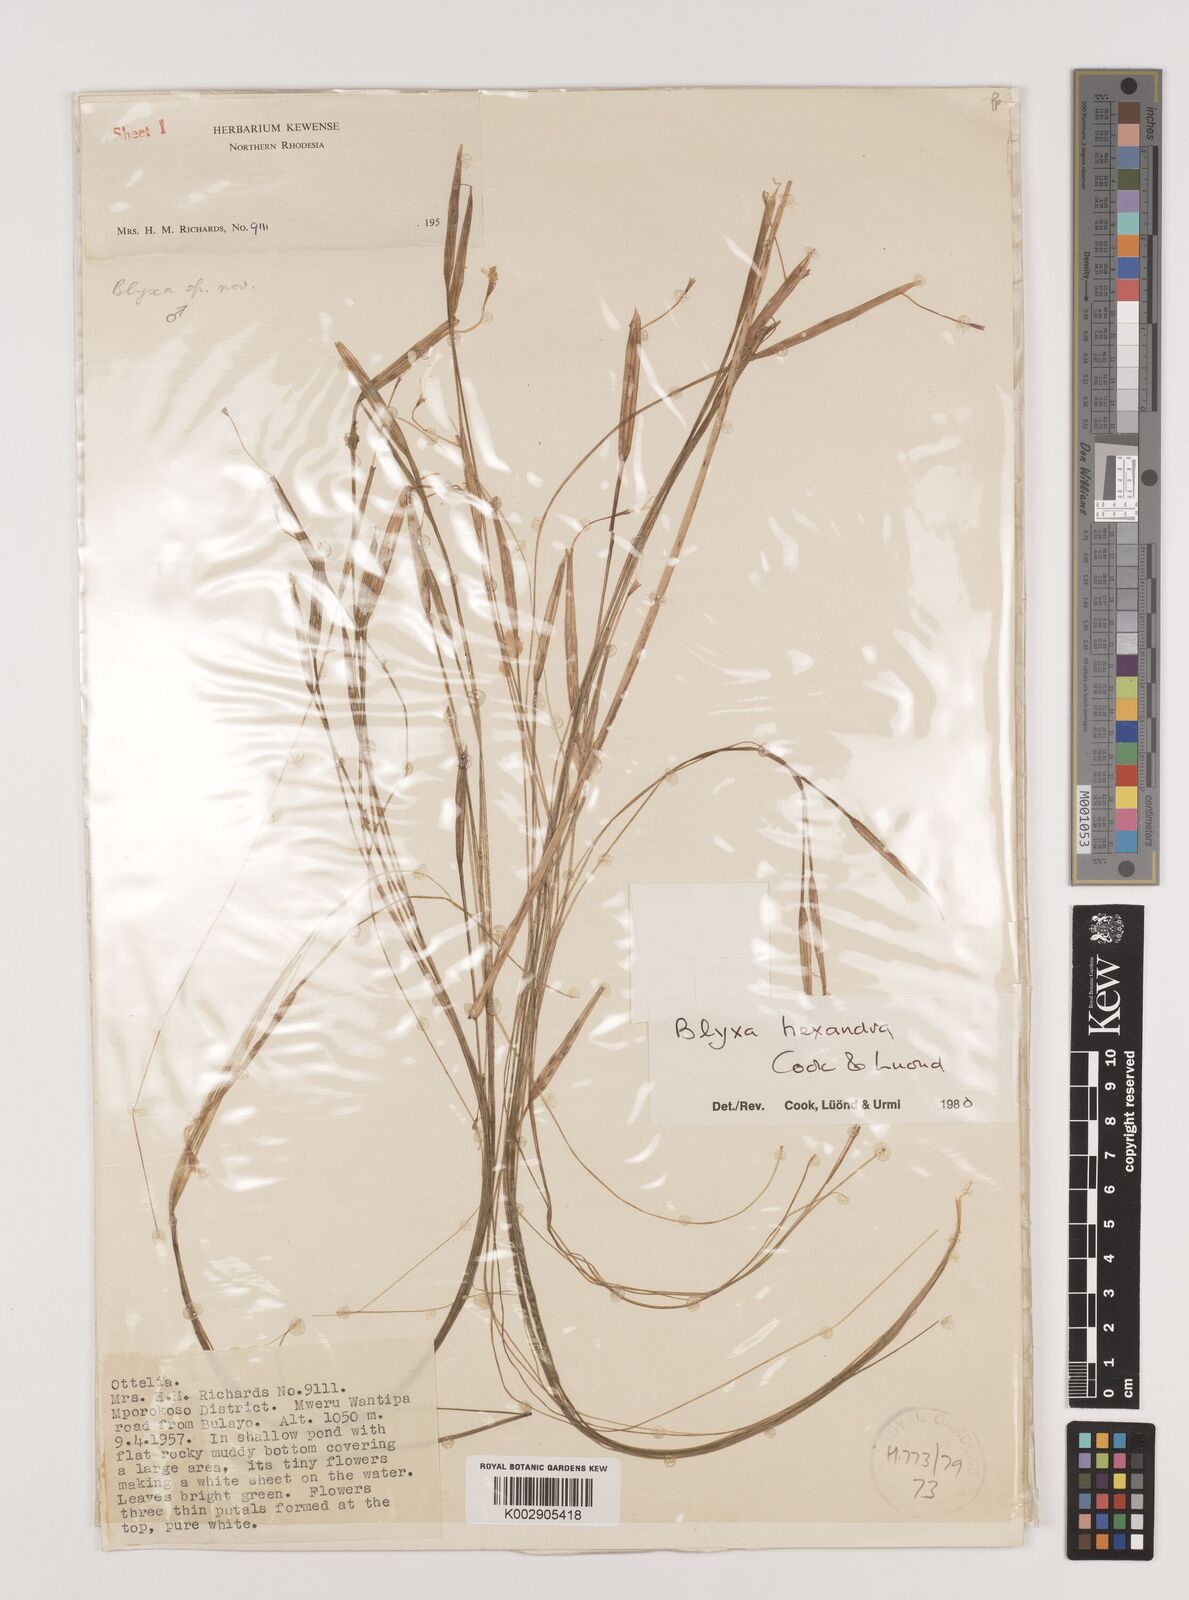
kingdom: Plantae
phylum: Tracheophyta
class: Liliopsida
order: Alismatales
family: Hydrocharitaceae
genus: Blyxa
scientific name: Blyxa hexandra
